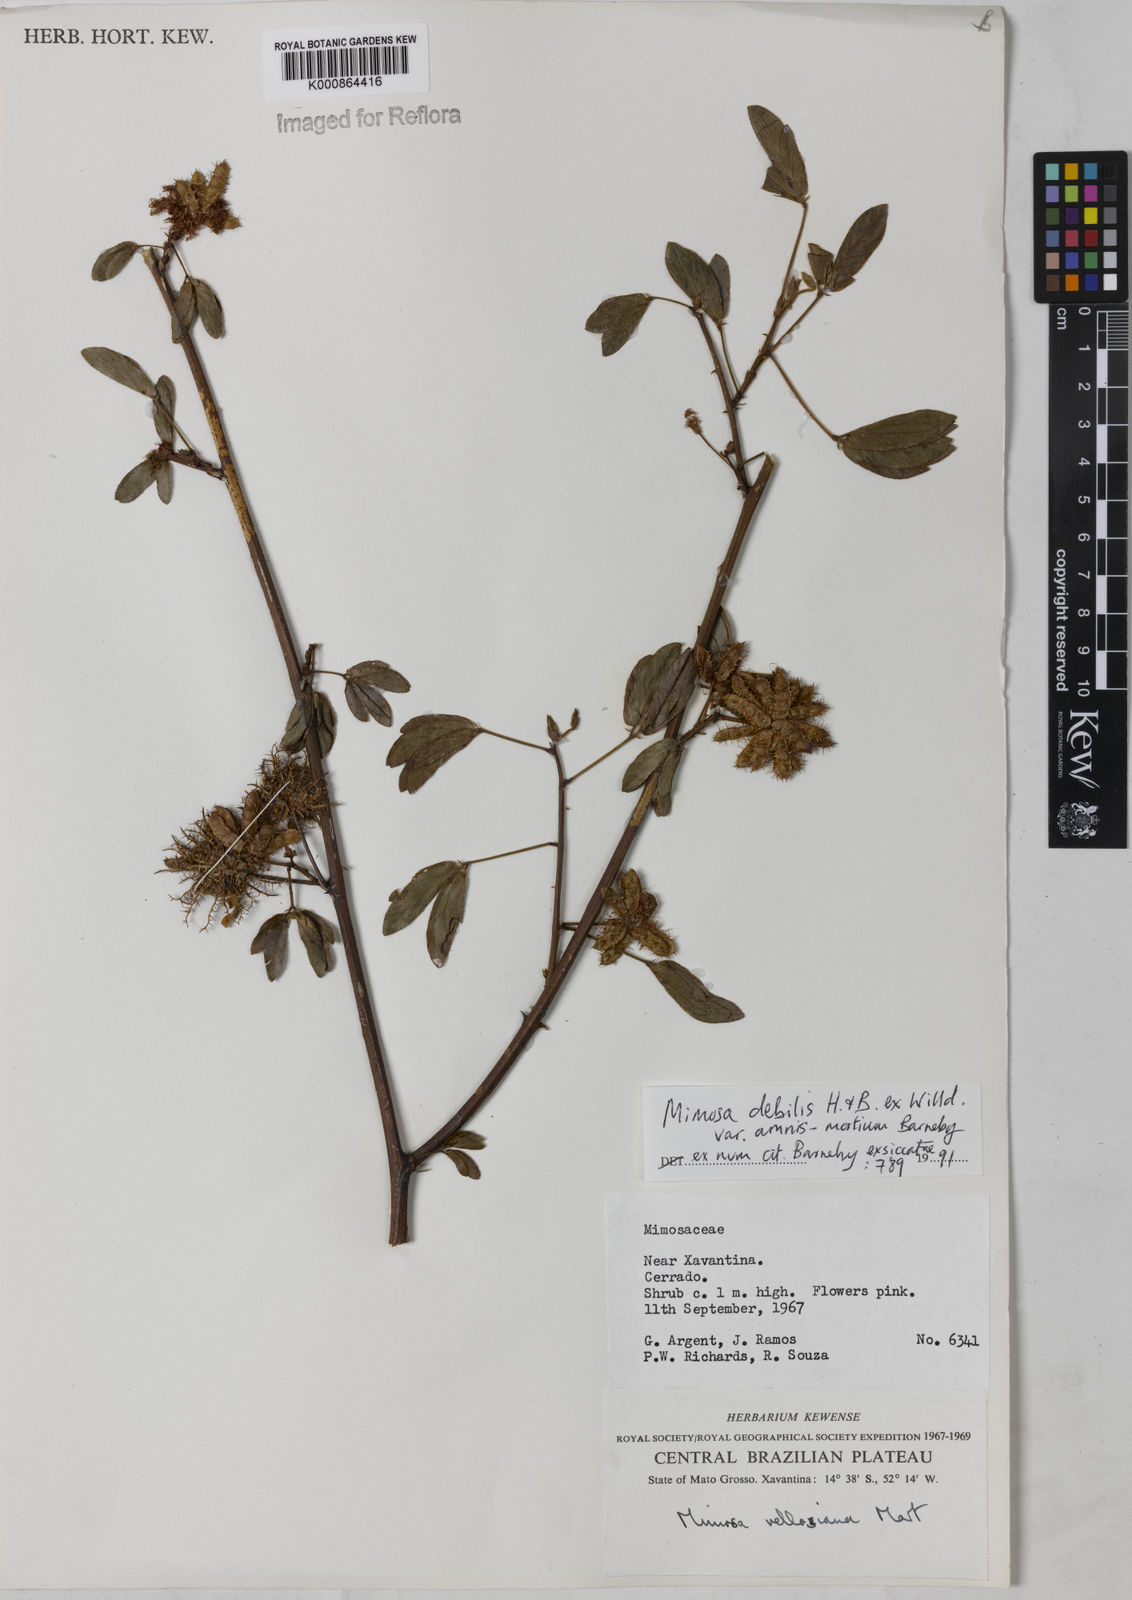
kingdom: Plantae
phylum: Tracheophyta
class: Magnoliopsida
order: Fabales
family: Fabaceae
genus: Mimosa
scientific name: Mimosa debilis
